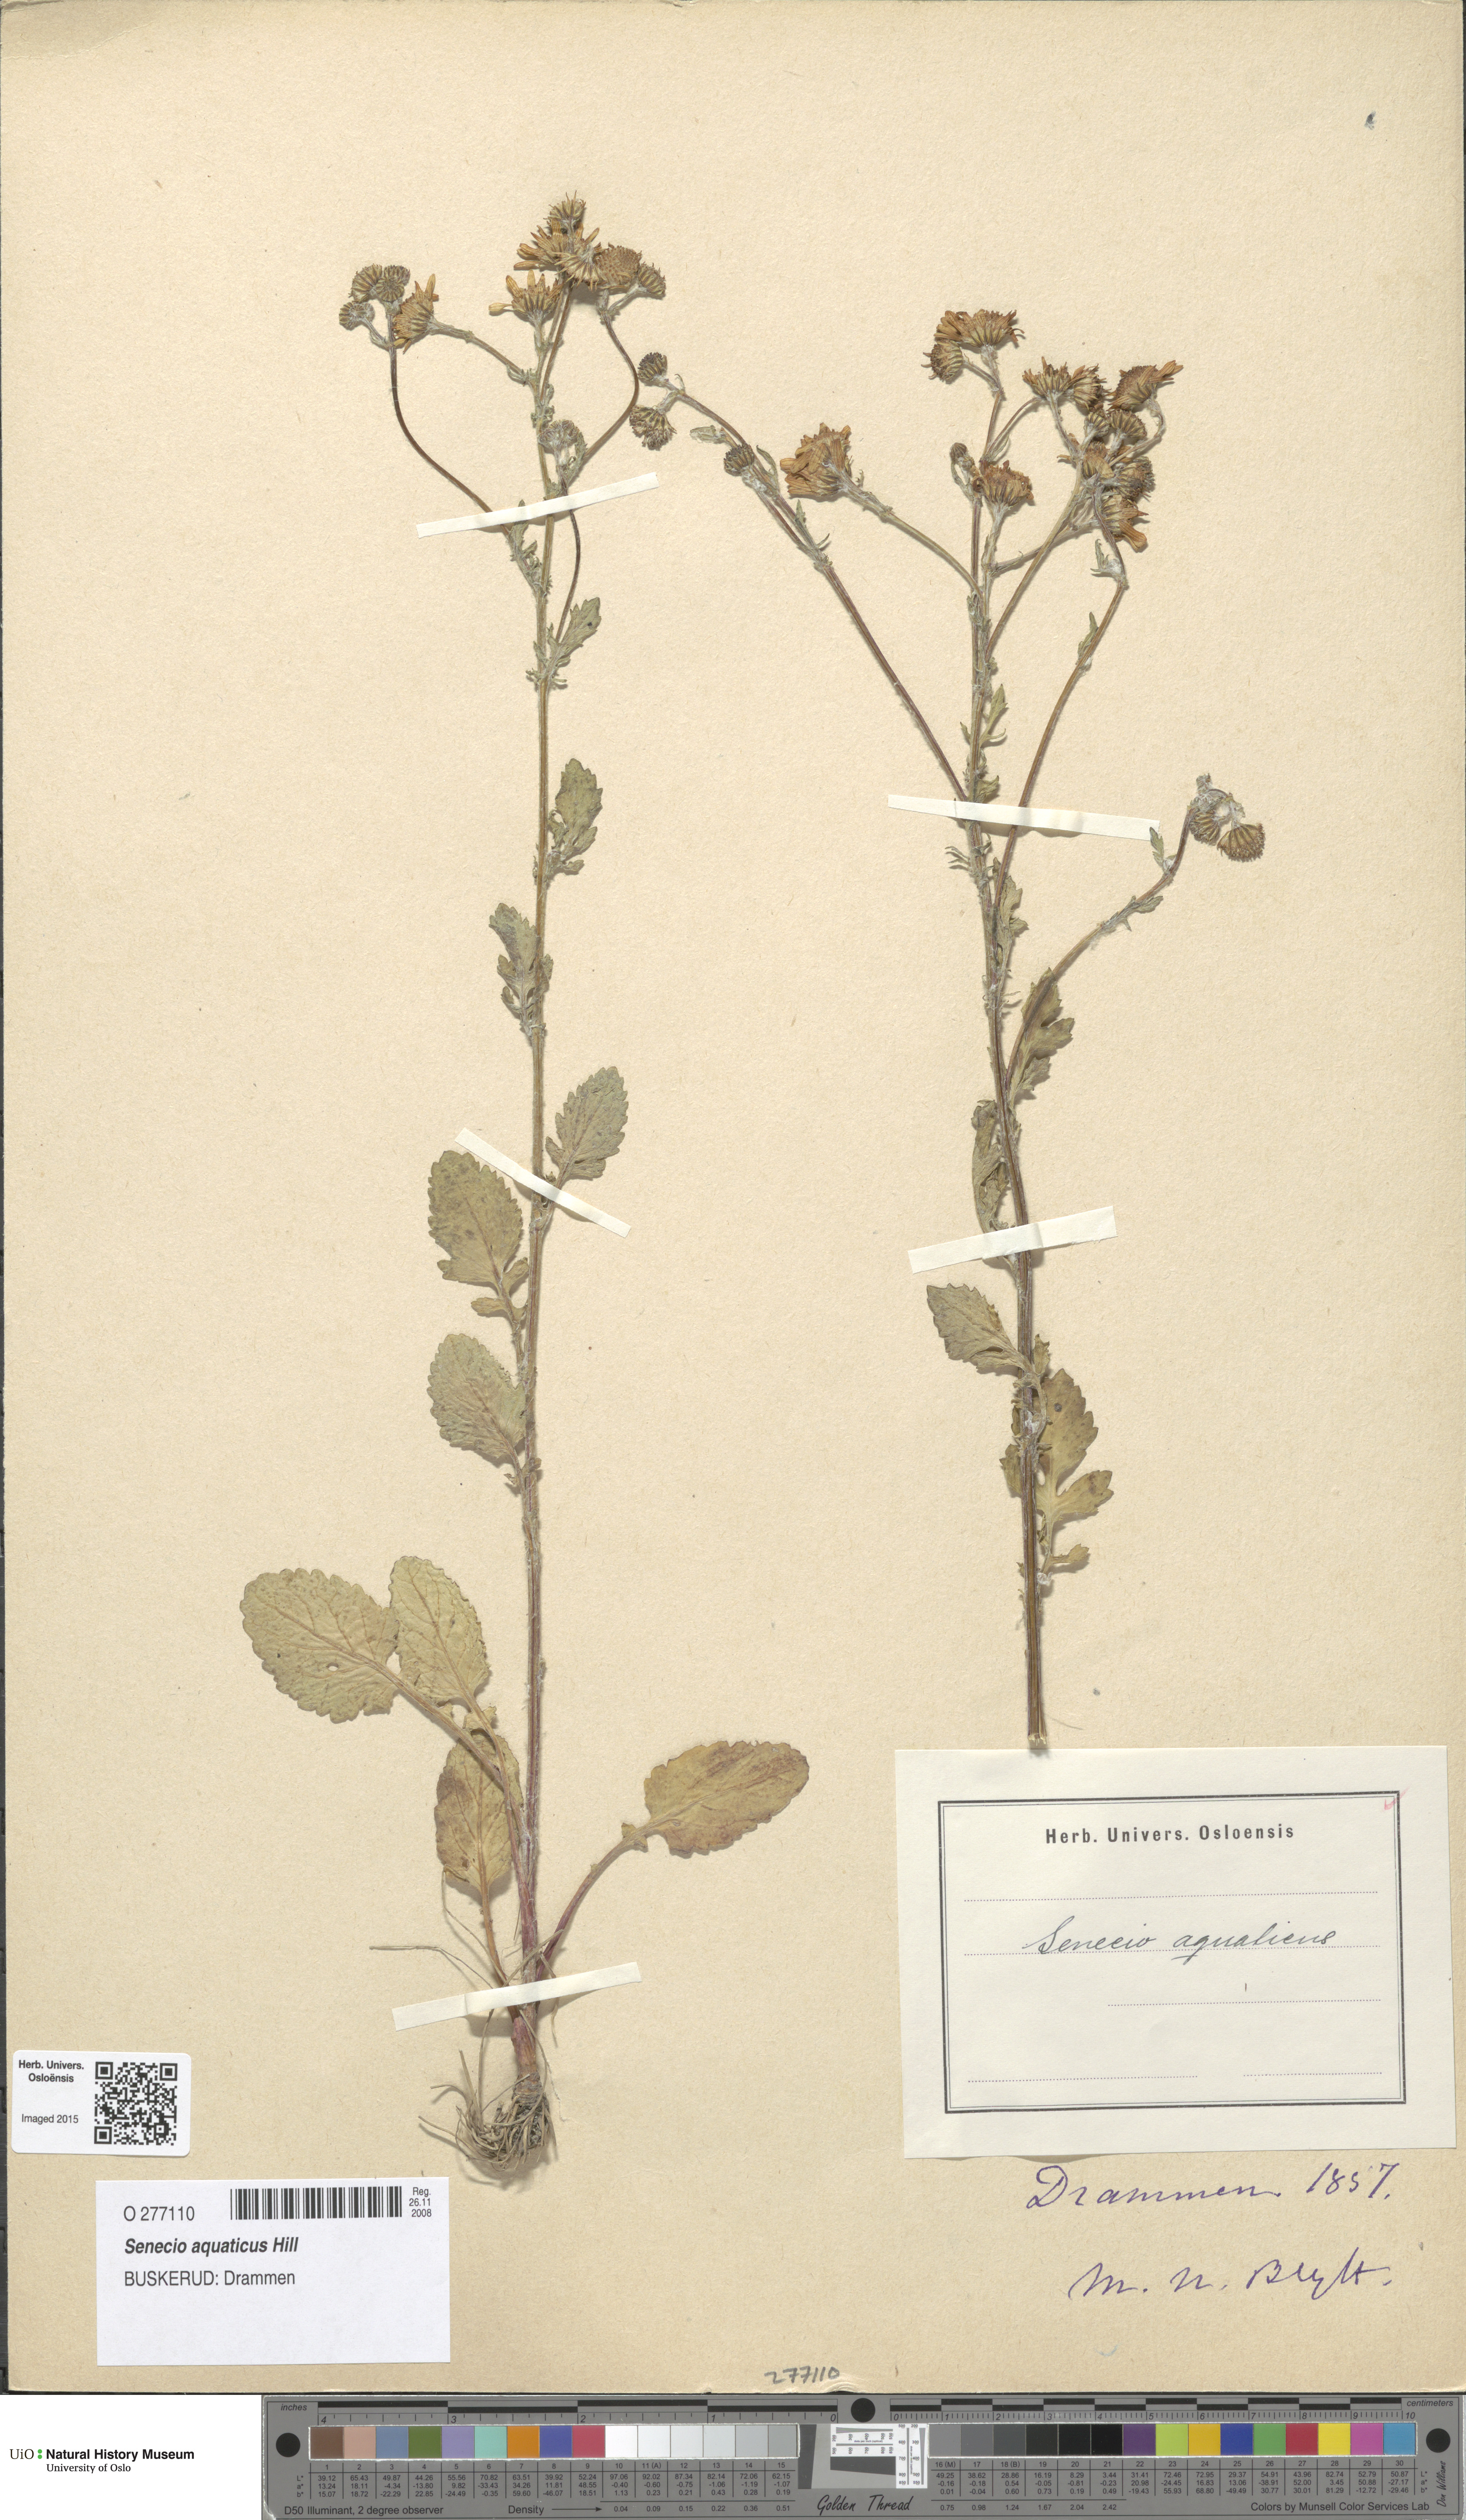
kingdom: Plantae
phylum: Tracheophyta
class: Magnoliopsida
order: Asterales
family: Asteraceae
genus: Jacobaea
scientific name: Jacobaea aquatica
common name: Water ragwort
